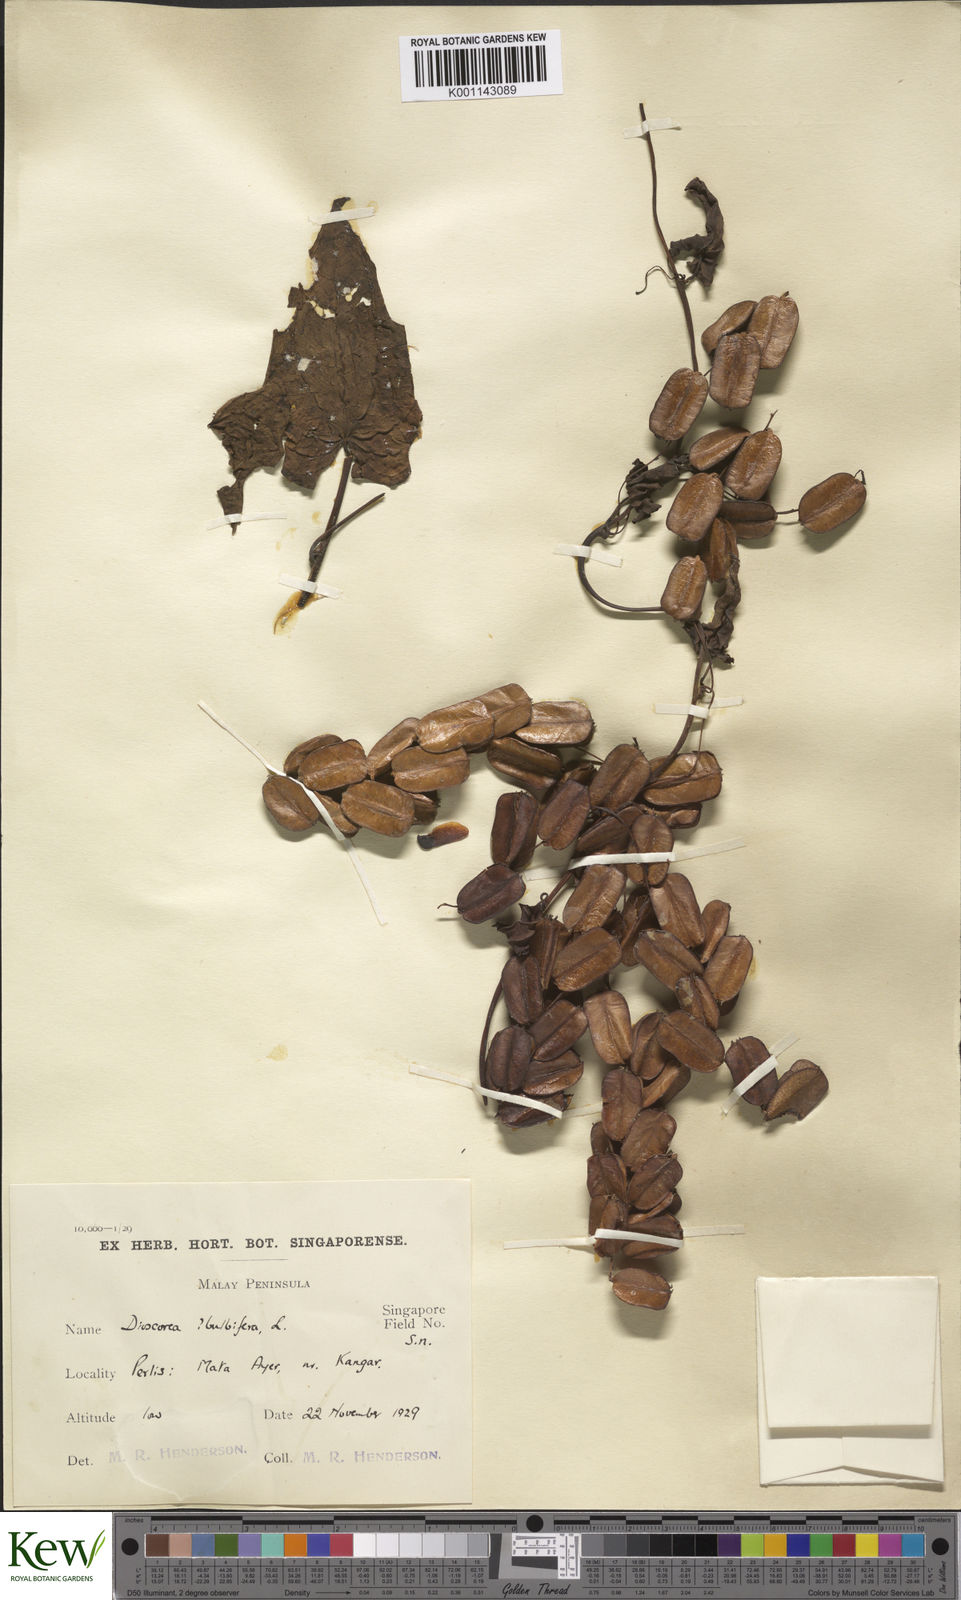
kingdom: Plantae
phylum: Tracheophyta
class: Liliopsida
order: Dioscoreales
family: Dioscoreaceae
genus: Dioscorea
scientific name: Dioscorea bulbifera
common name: Air yam
